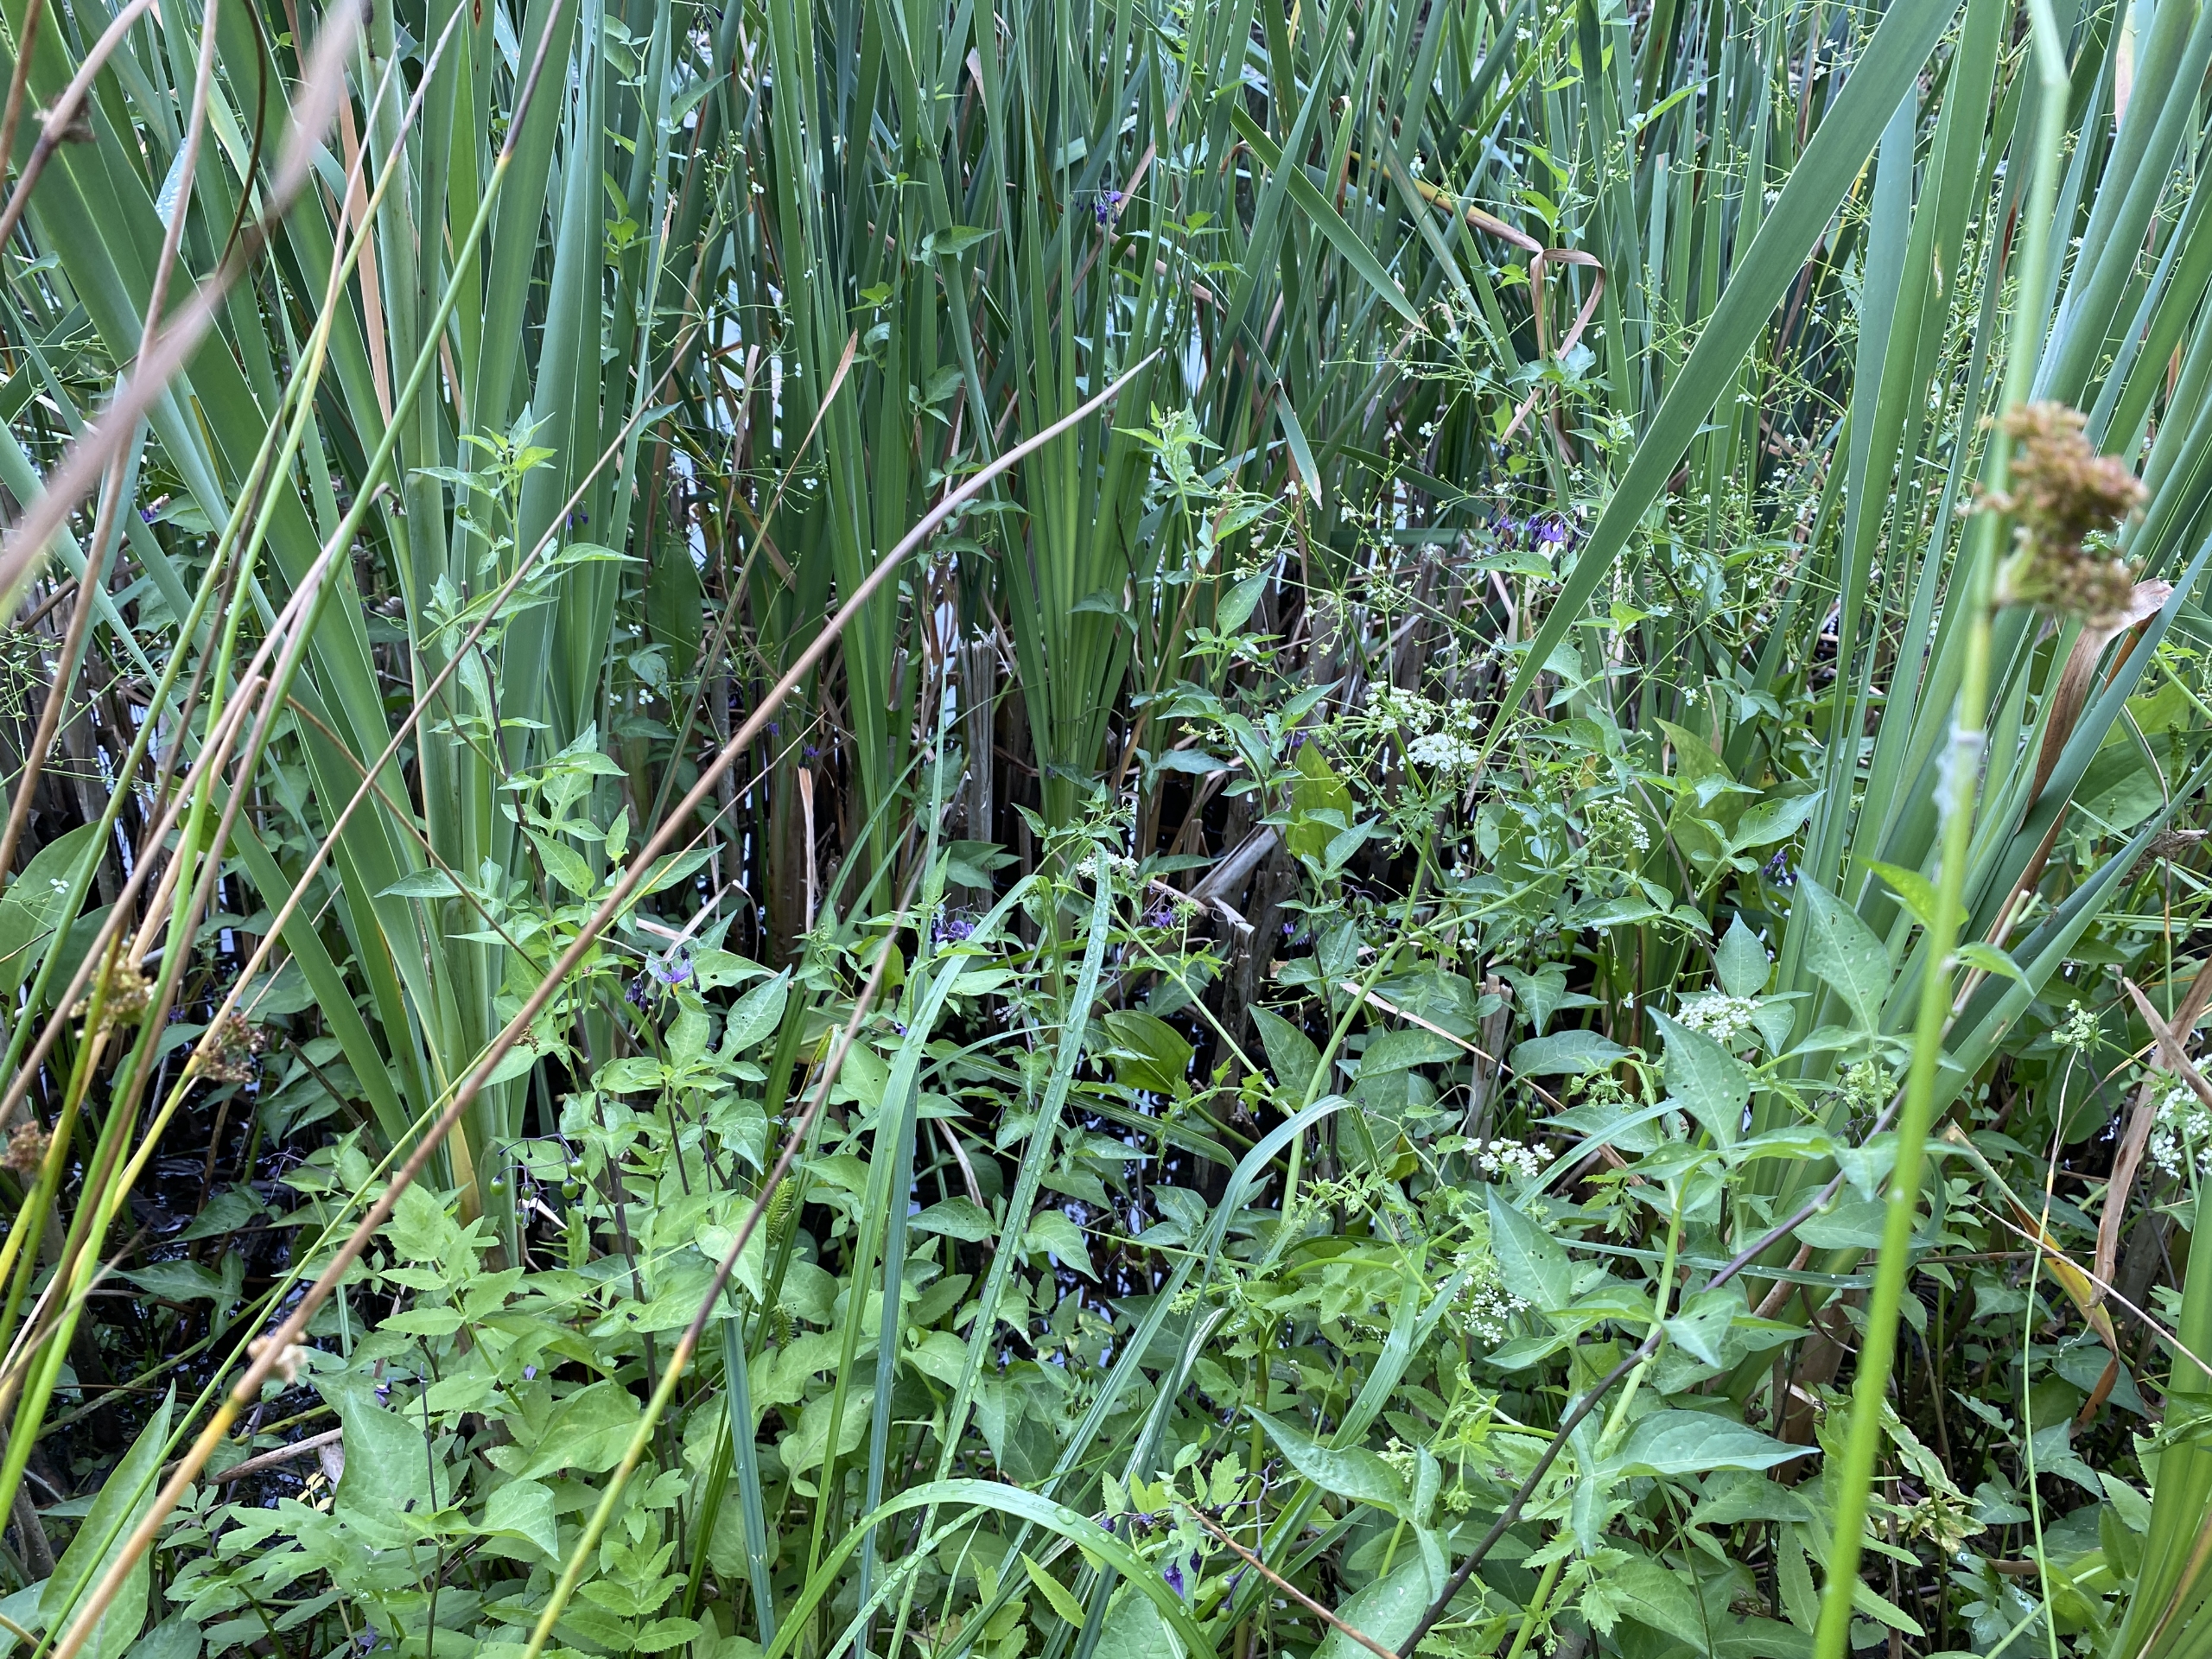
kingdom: Plantae
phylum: Tracheophyta
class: Magnoliopsida
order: Solanales
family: Solanaceae
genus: Solanum
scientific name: Solanum dulcamara
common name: Bittersød natskygge
